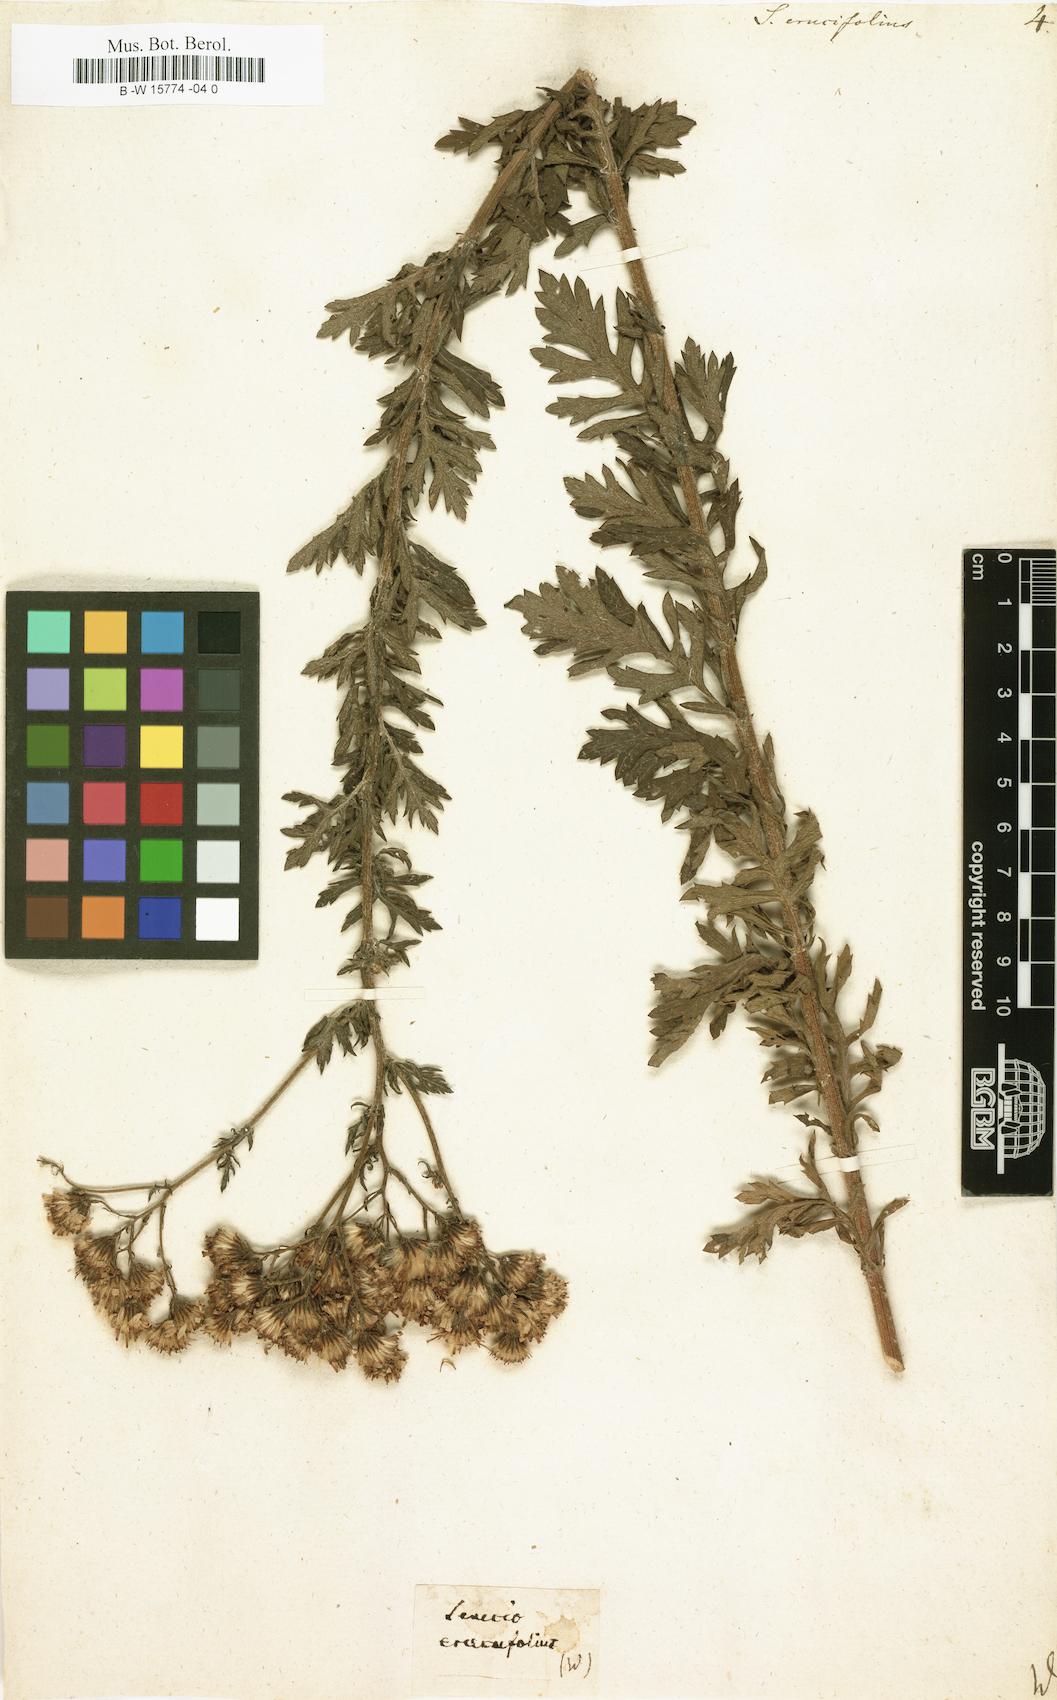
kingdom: Plantae
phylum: Tracheophyta
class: Magnoliopsida
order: Asterales
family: Asteraceae
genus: Jacobaea
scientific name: Jacobaea
